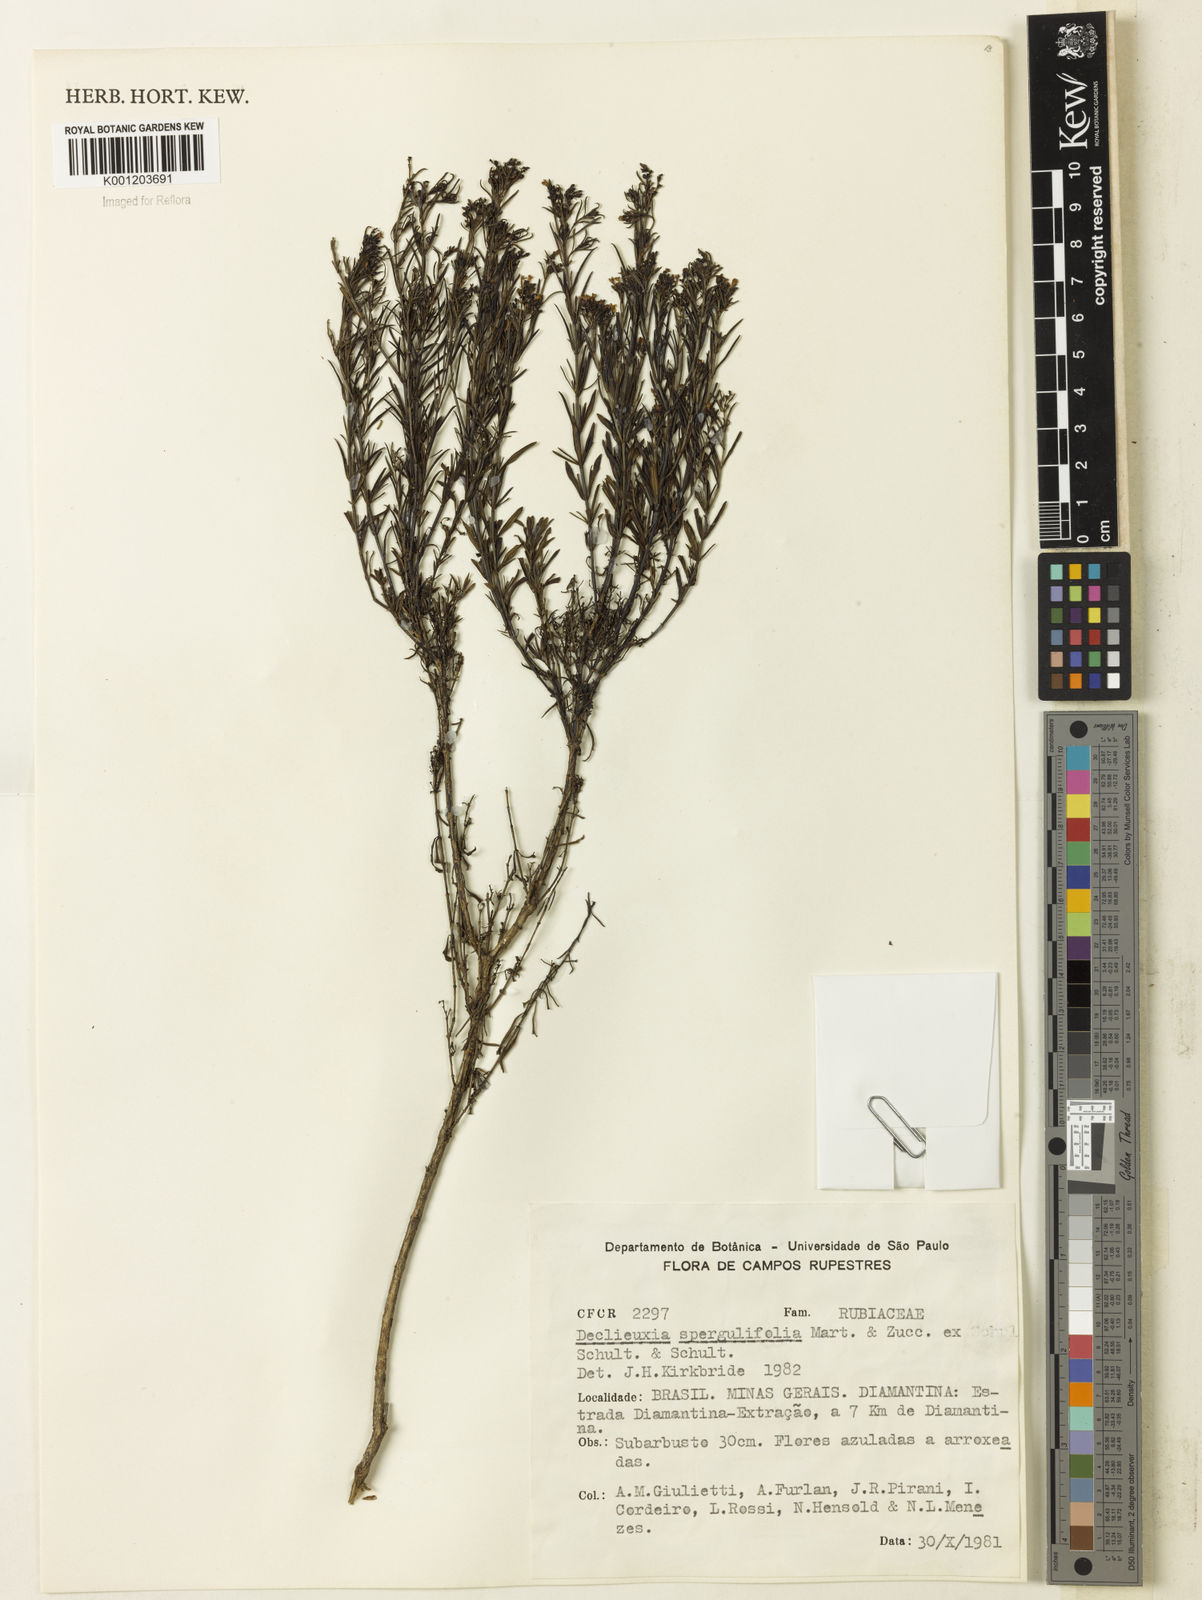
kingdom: Plantae
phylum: Tracheophyta
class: Magnoliopsida
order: Gentianales
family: Rubiaceae
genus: Declieuxia
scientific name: Declieuxia
